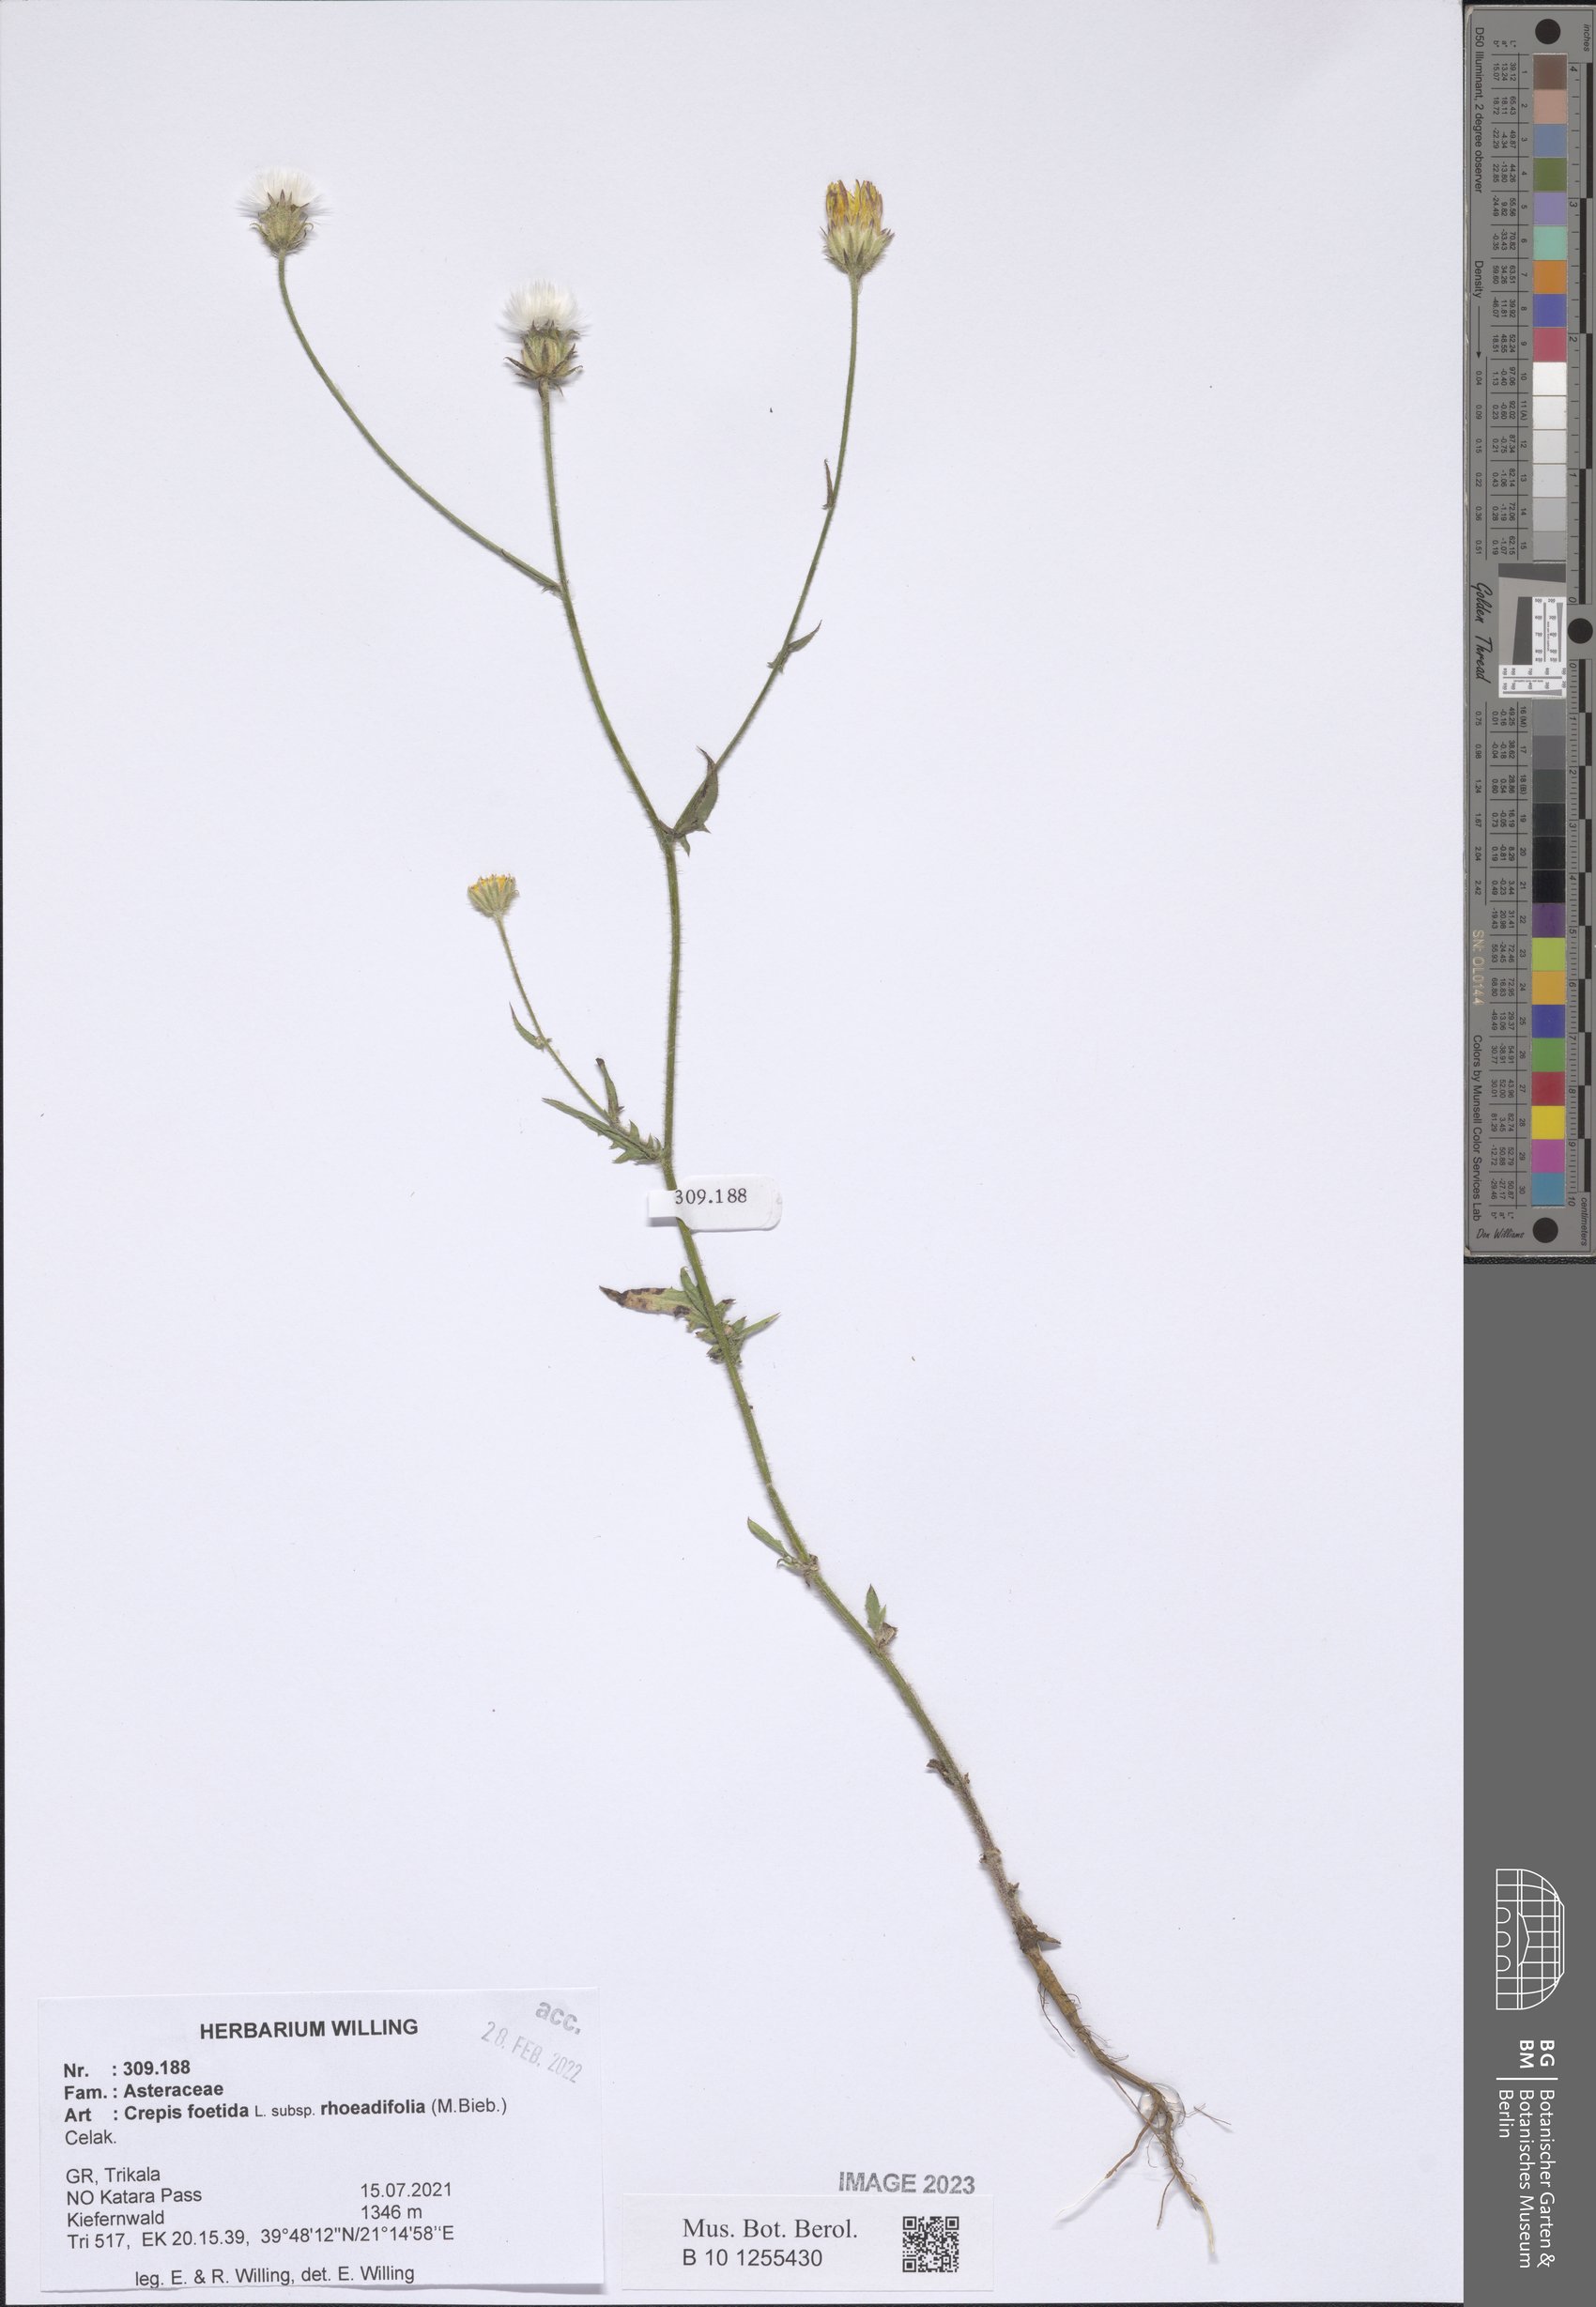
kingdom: Plantae
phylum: Tracheophyta
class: Magnoliopsida
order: Asterales
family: Asteraceae
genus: Crepis
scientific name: Crepis foetida
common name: Stinking hawk's-beard
